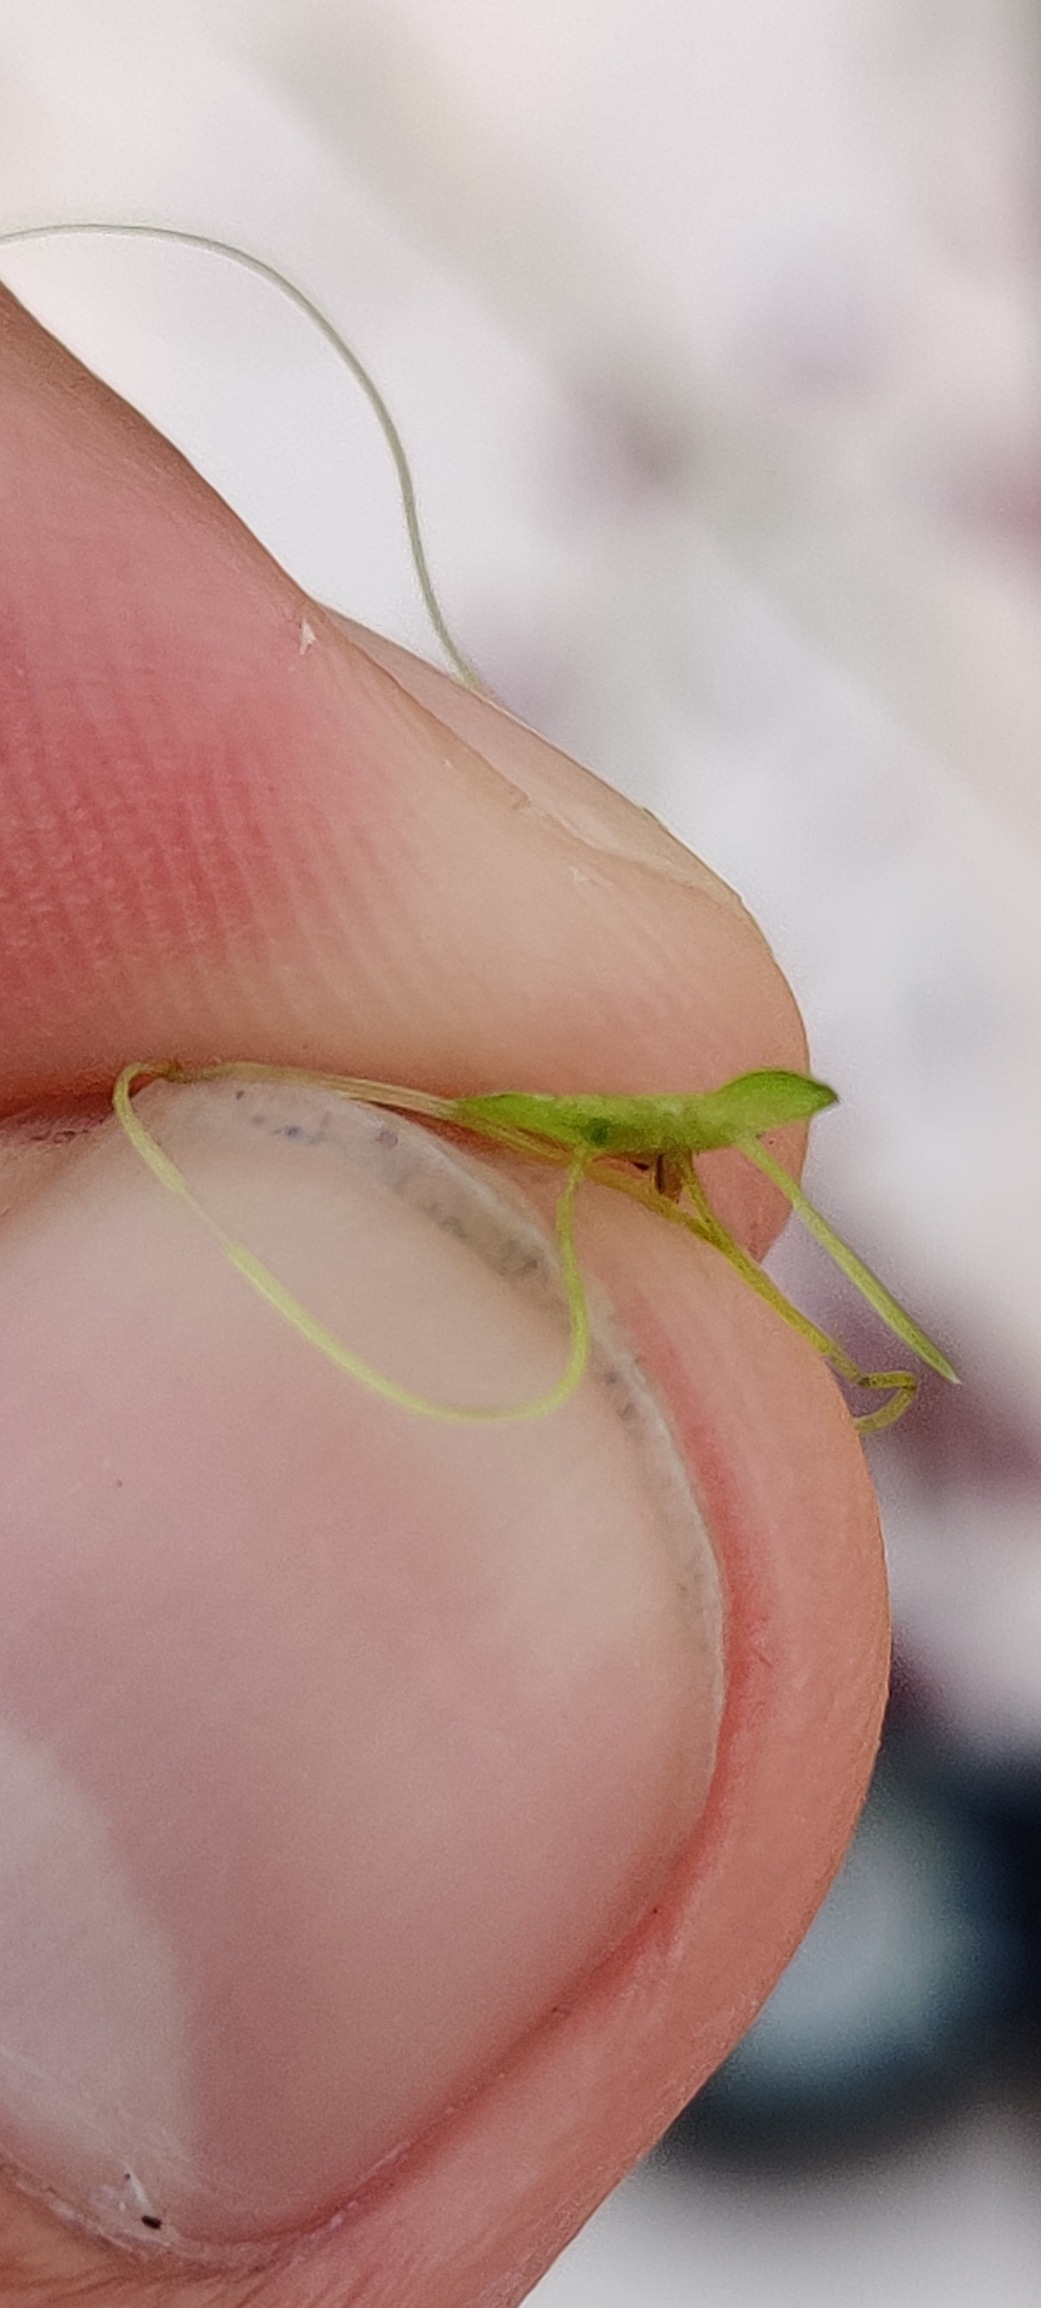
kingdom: Plantae
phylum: Tracheophyta
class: Liliopsida
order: Alismatales
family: Araceae
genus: Lemna
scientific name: Lemna minor
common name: Liden andemad
